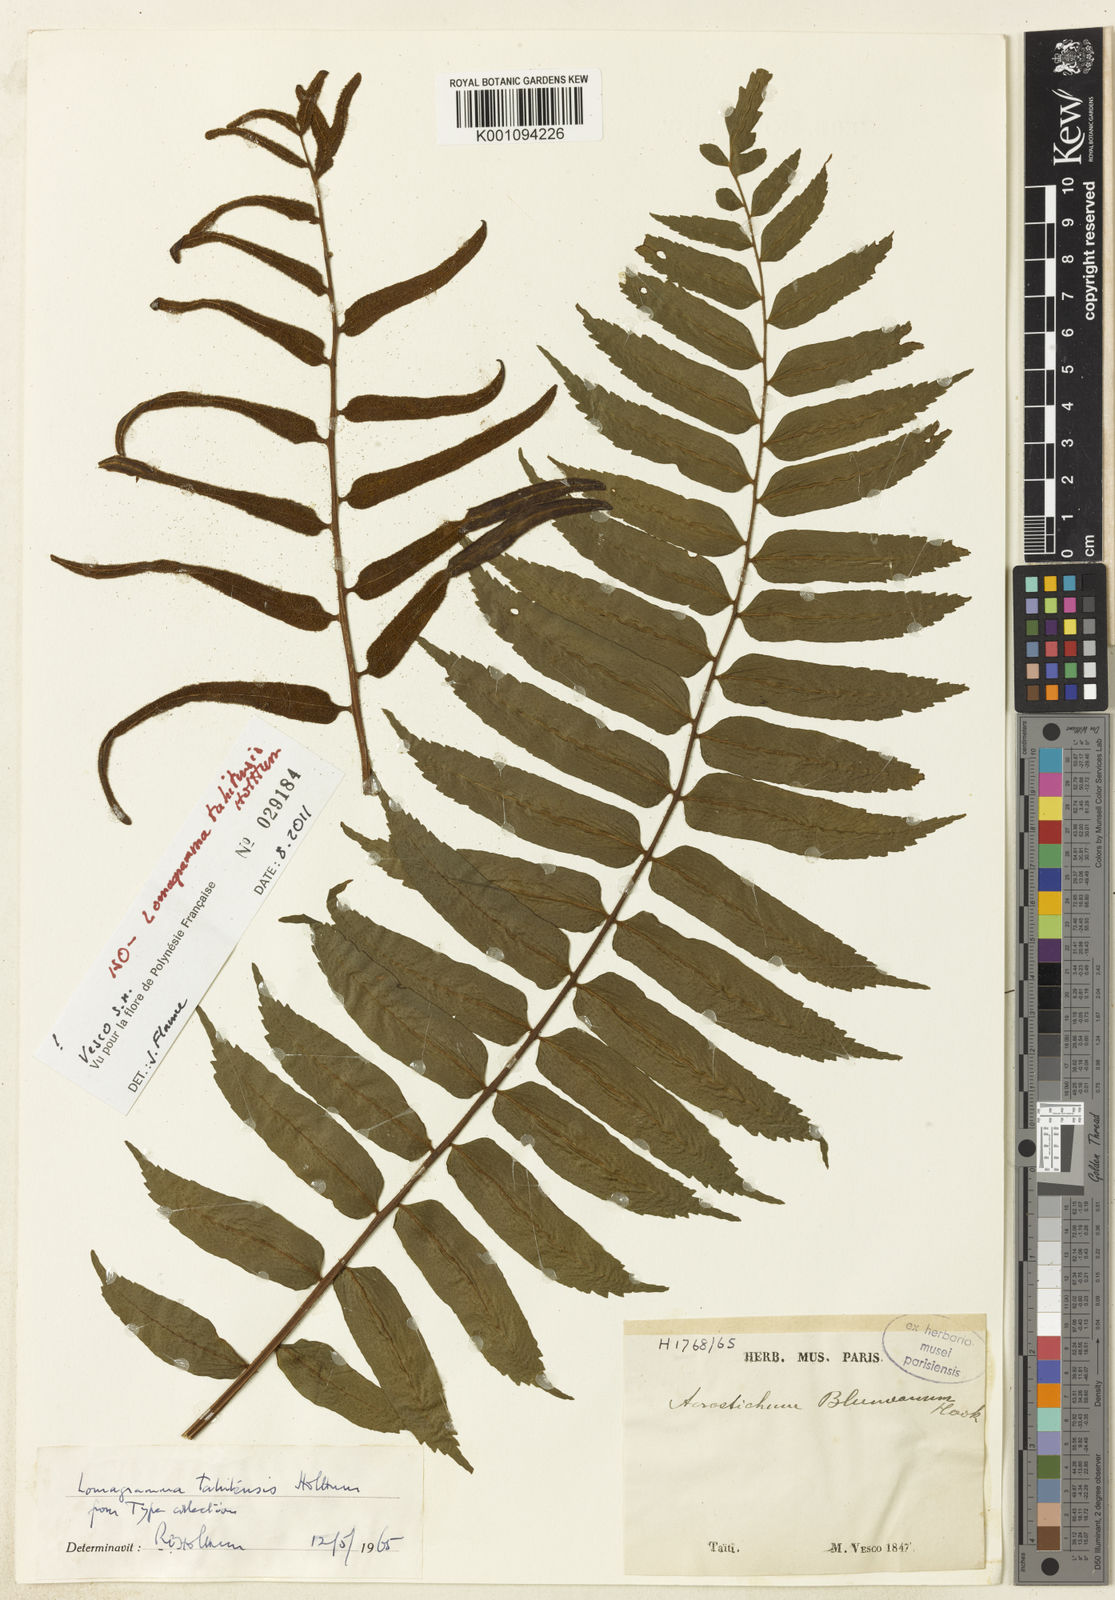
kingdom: Plantae
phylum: Tracheophyta
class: Polypodiopsida
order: Polypodiales
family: Dryopteridaceae
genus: Lomagramma
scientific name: Lomagramma tahitensis
